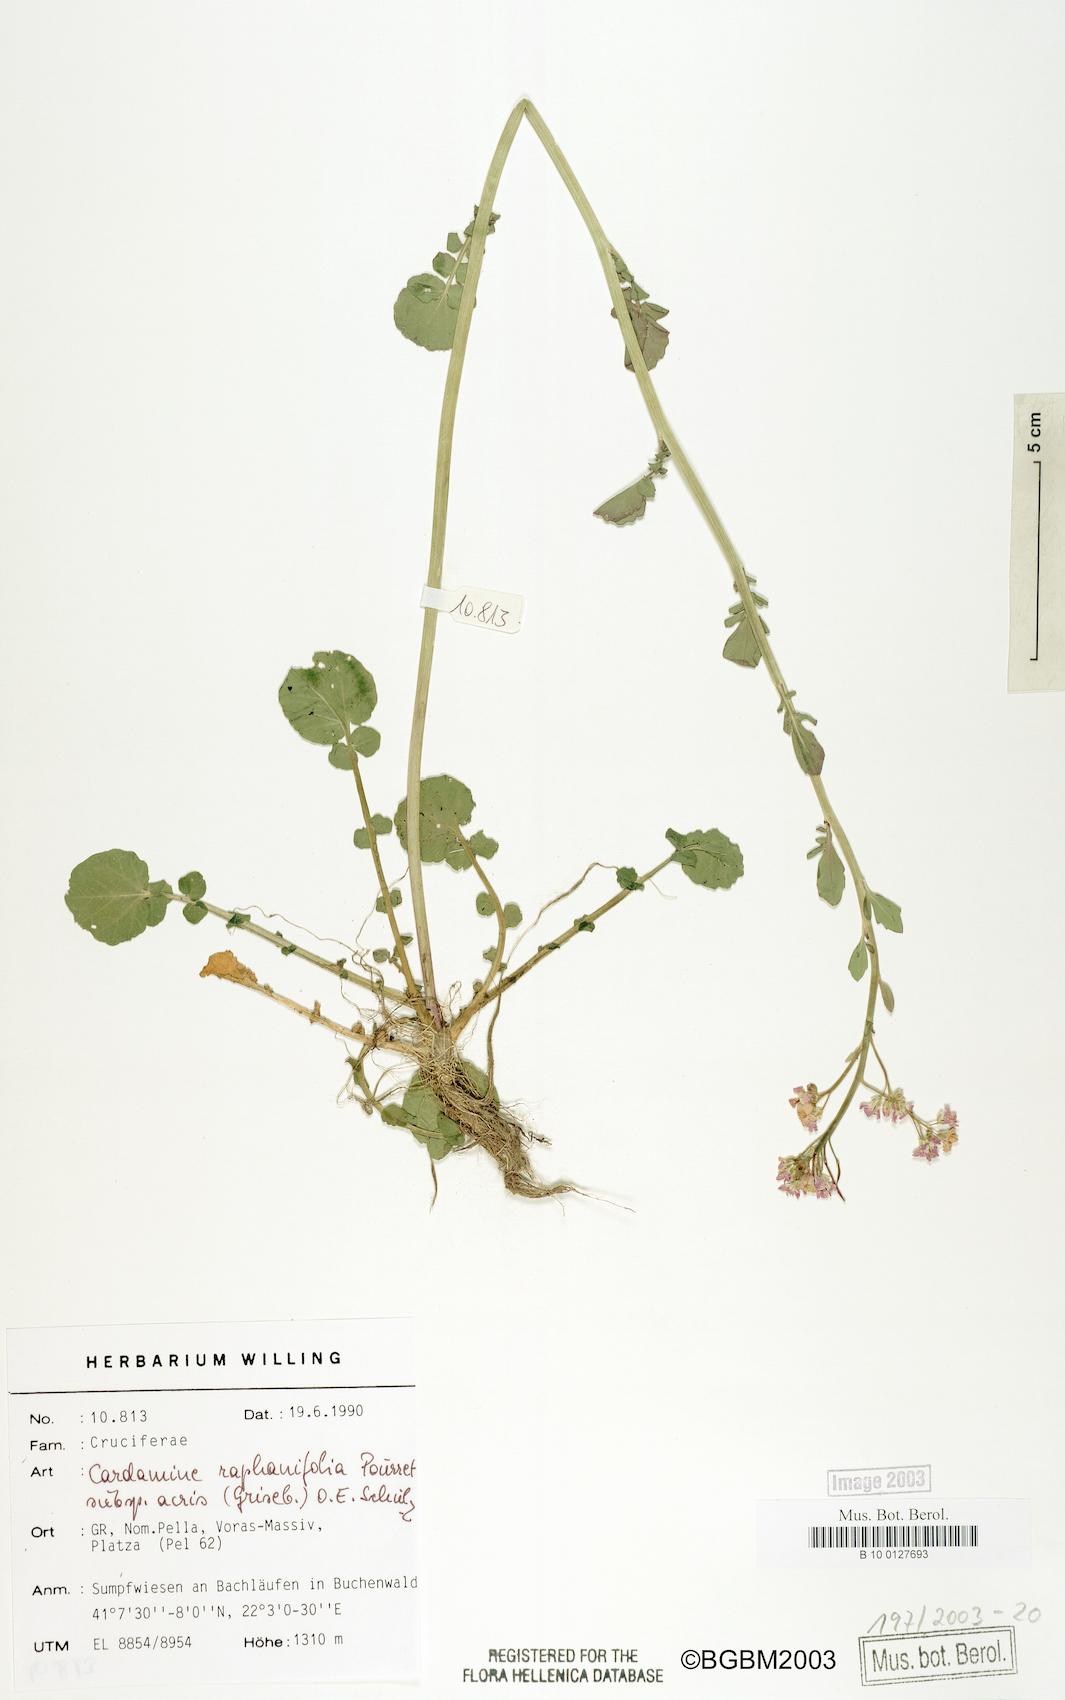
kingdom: Plantae
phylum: Tracheophyta
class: Magnoliopsida
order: Brassicales
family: Brassicaceae
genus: Cardamine
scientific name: Cardamine raphanifolia
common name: Greater cuckooflower
